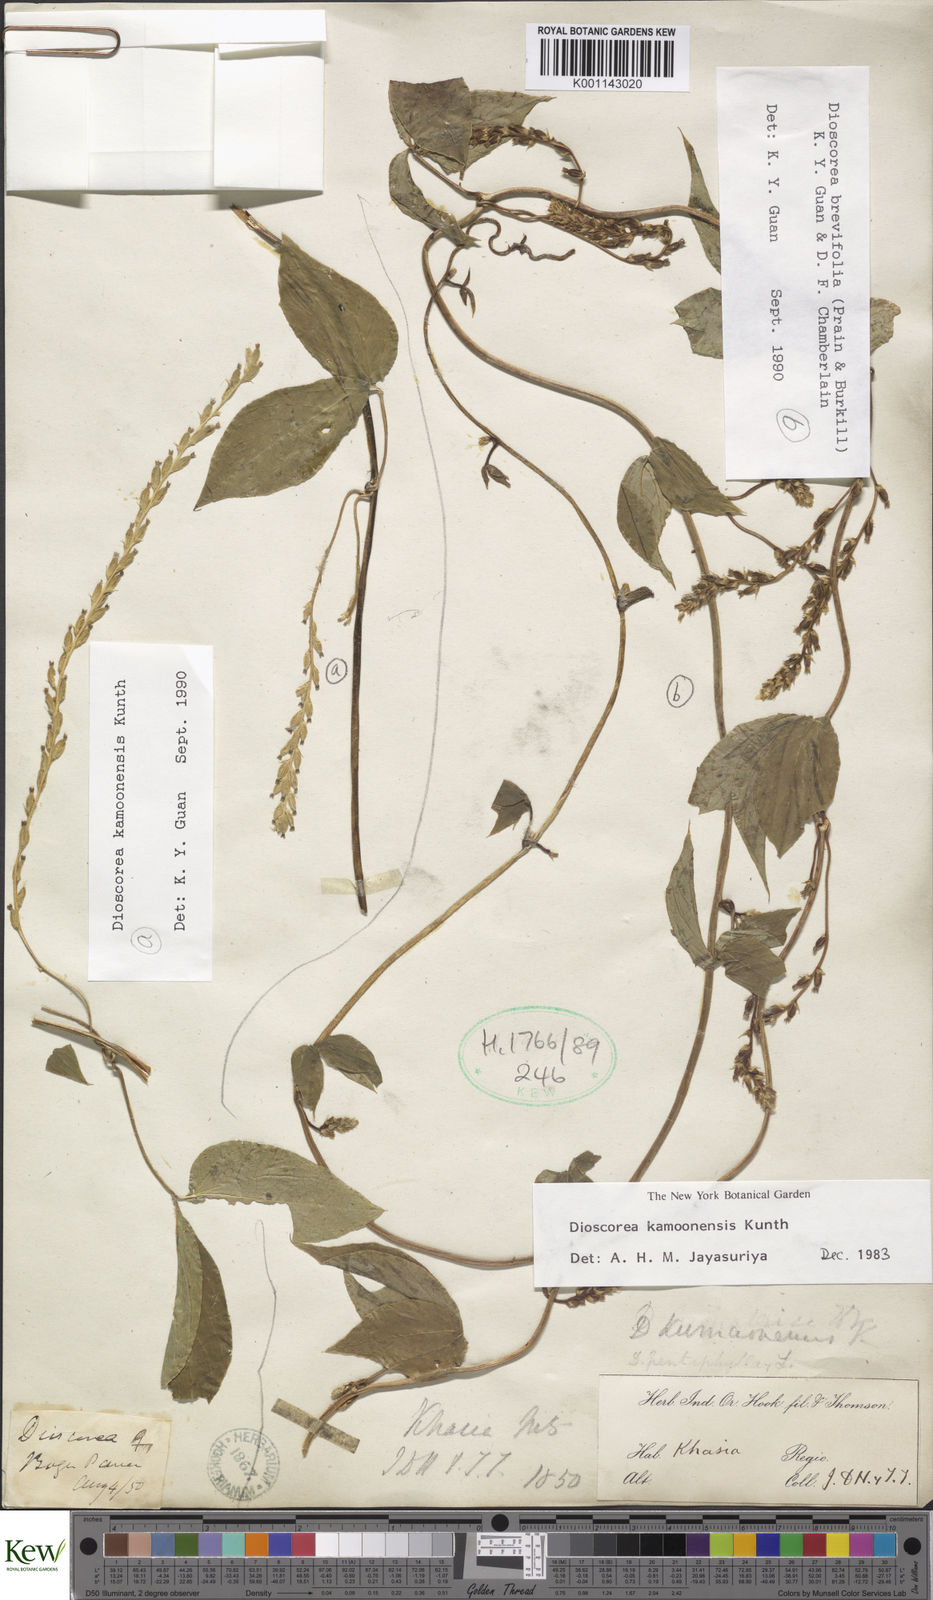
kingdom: Plantae
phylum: Tracheophyta
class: Liliopsida
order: Dioscoreales
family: Dioscoreaceae
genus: Dioscorea
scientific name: Dioscorea kamoonensis
